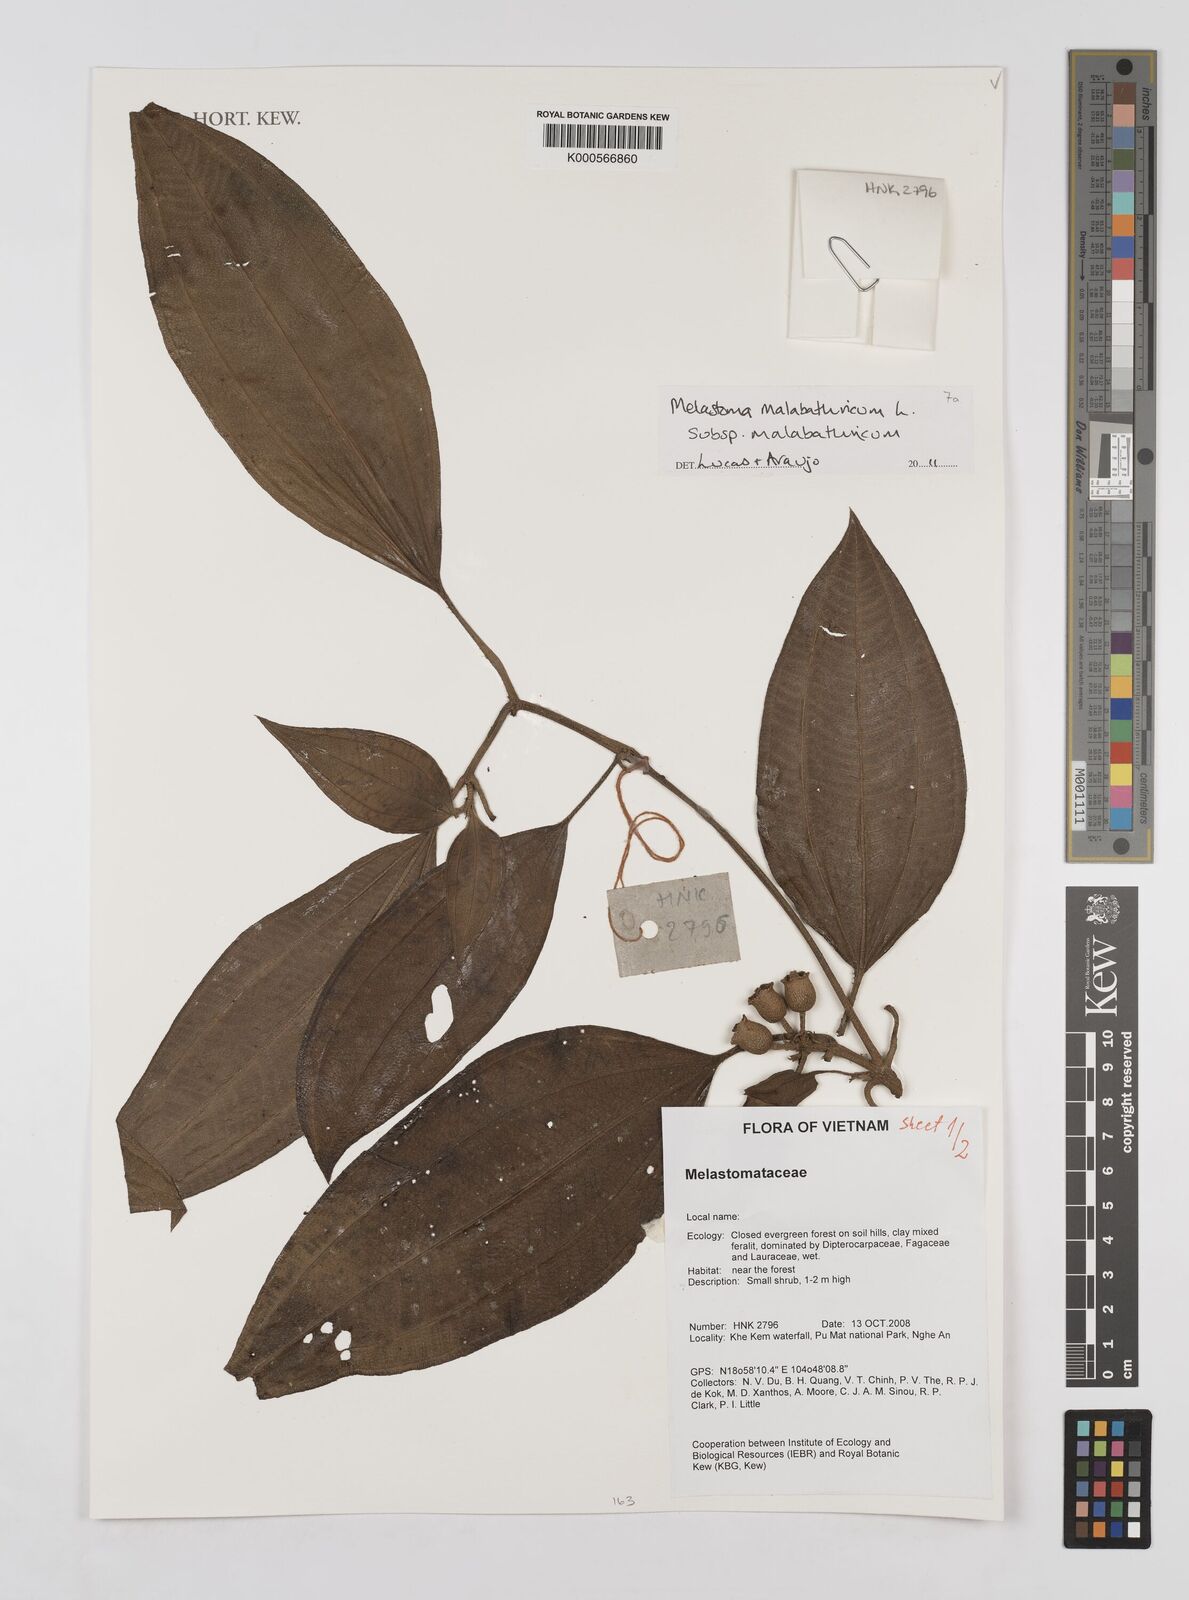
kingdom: Plantae
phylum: Tracheophyta
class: Magnoliopsida
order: Myrtales
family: Melastomataceae
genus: Melastoma
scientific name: Melastoma malabathricum
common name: Indian-rhododendron
